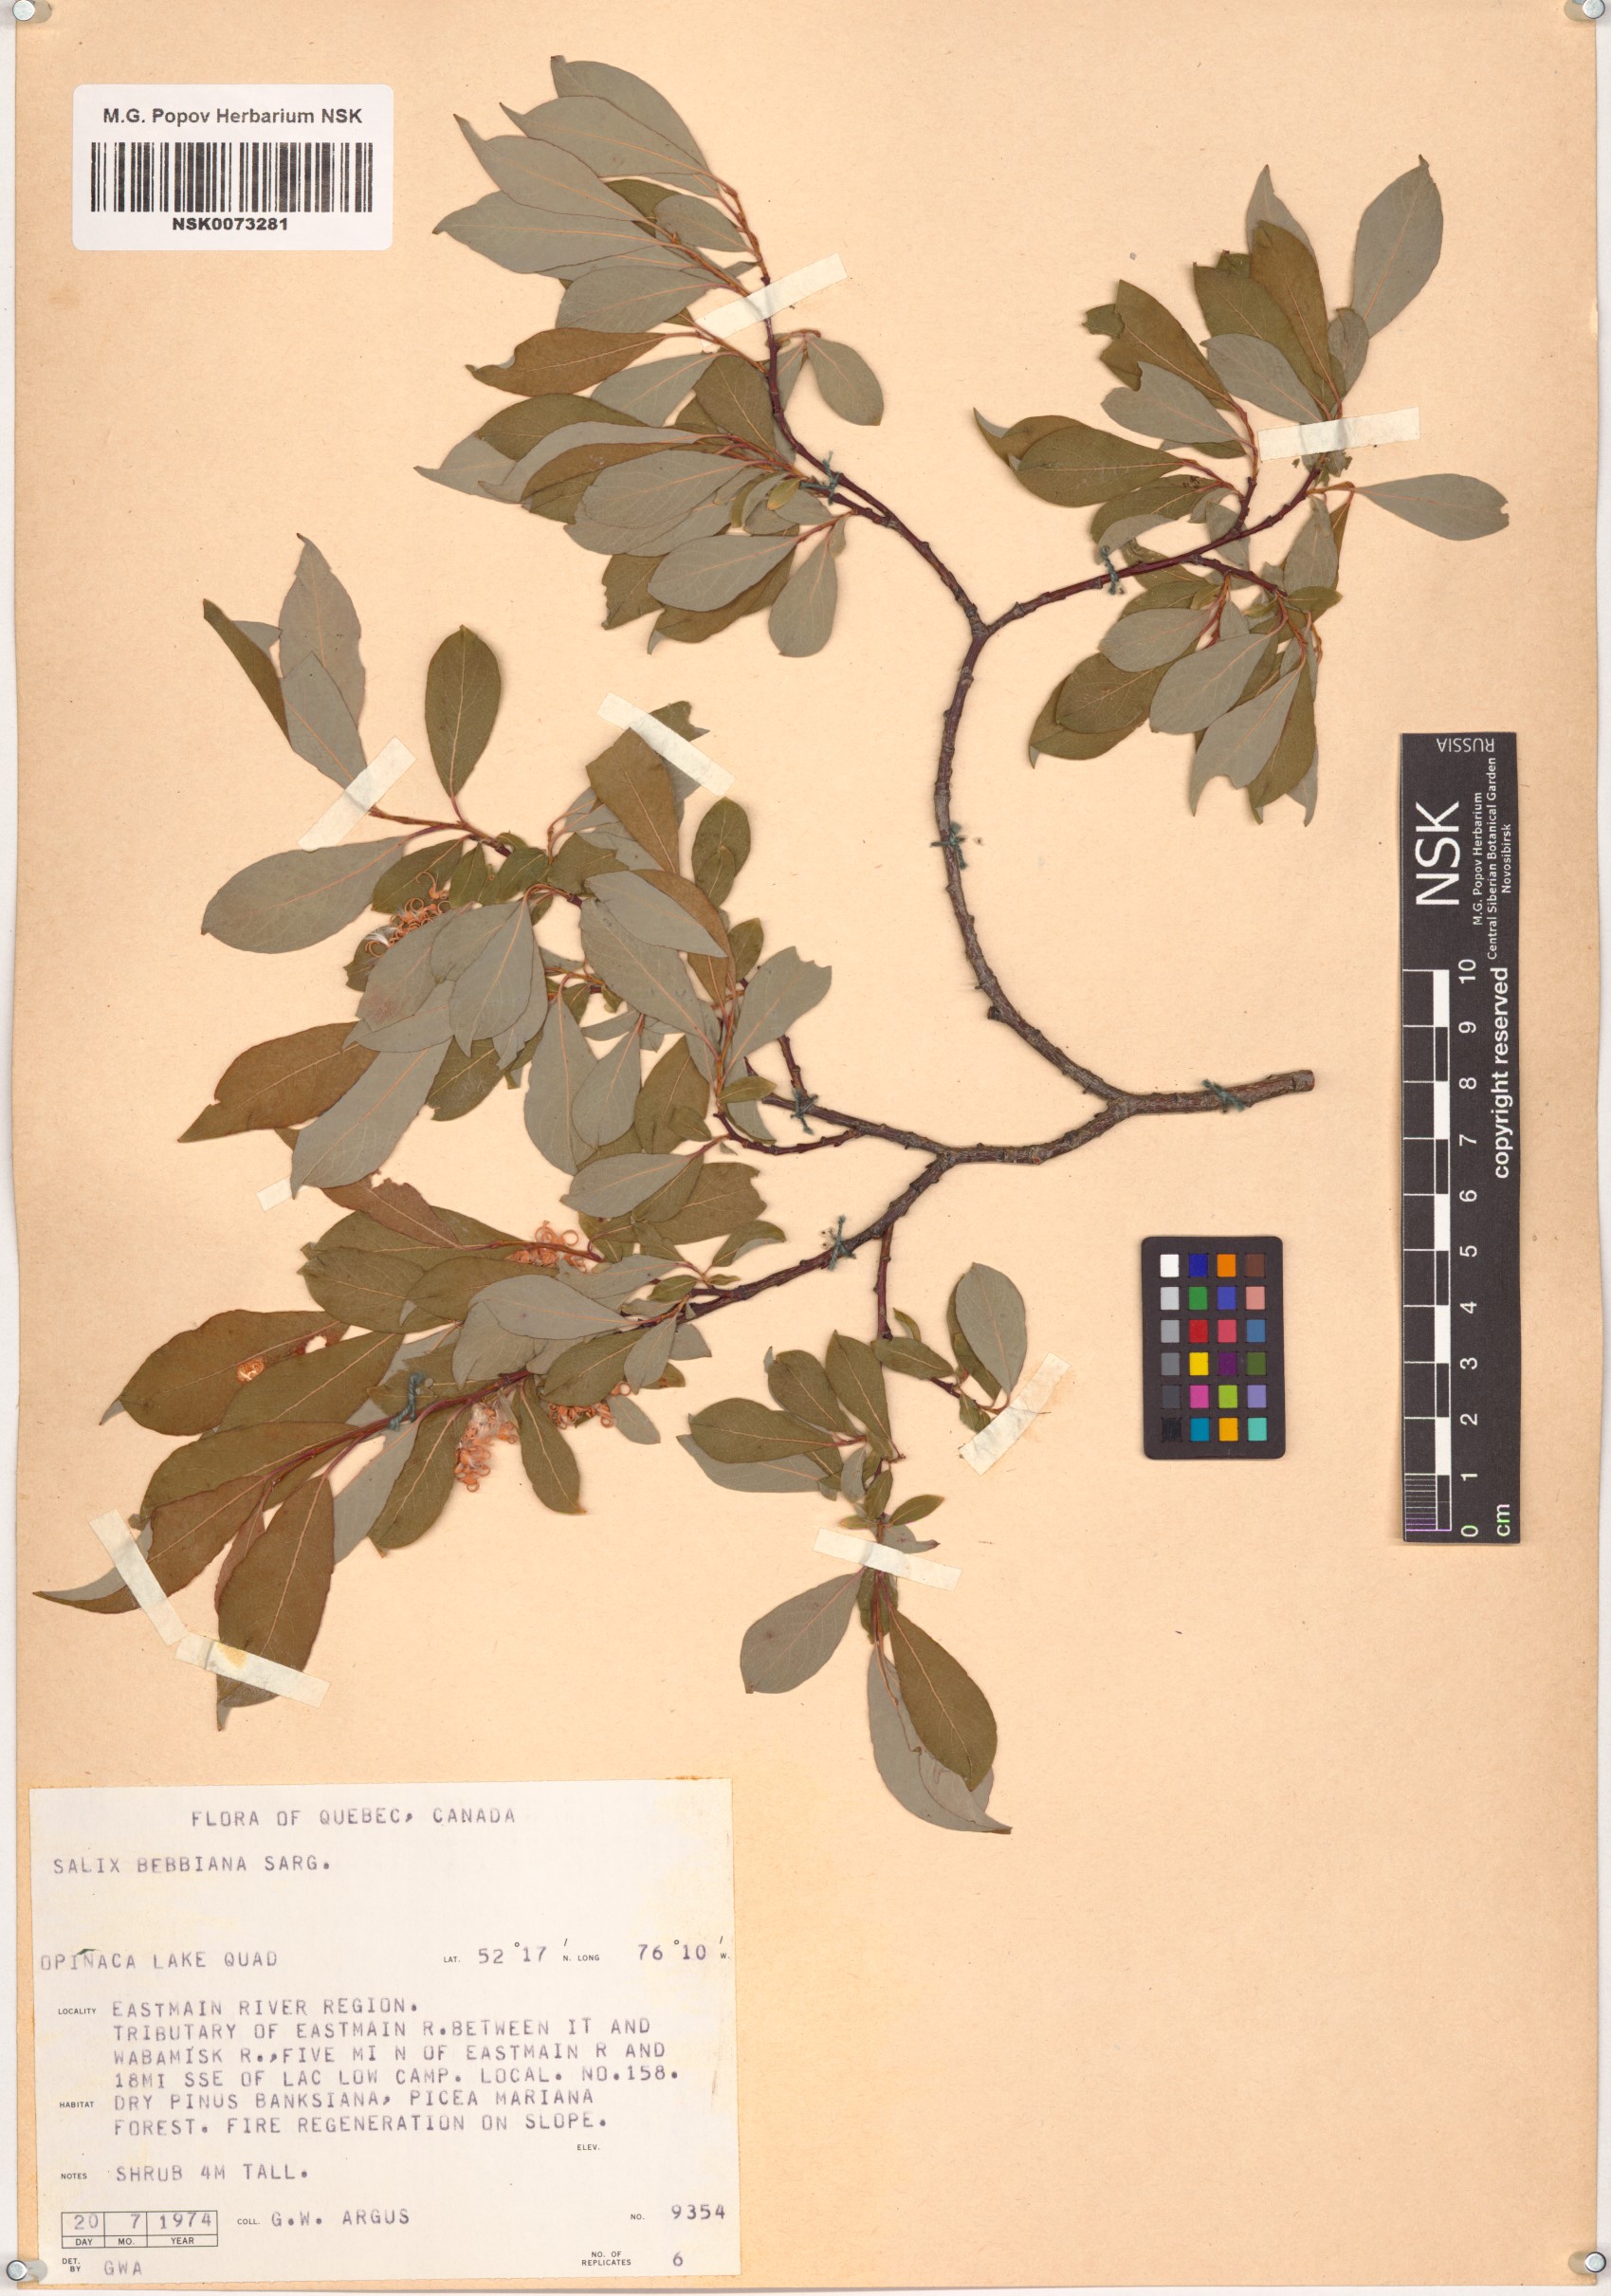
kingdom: Plantae
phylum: Tracheophyta
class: Magnoliopsida
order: Malpighiales
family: Salicaceae
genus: Salix
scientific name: Salix bebbiana
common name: Bebb's willow
